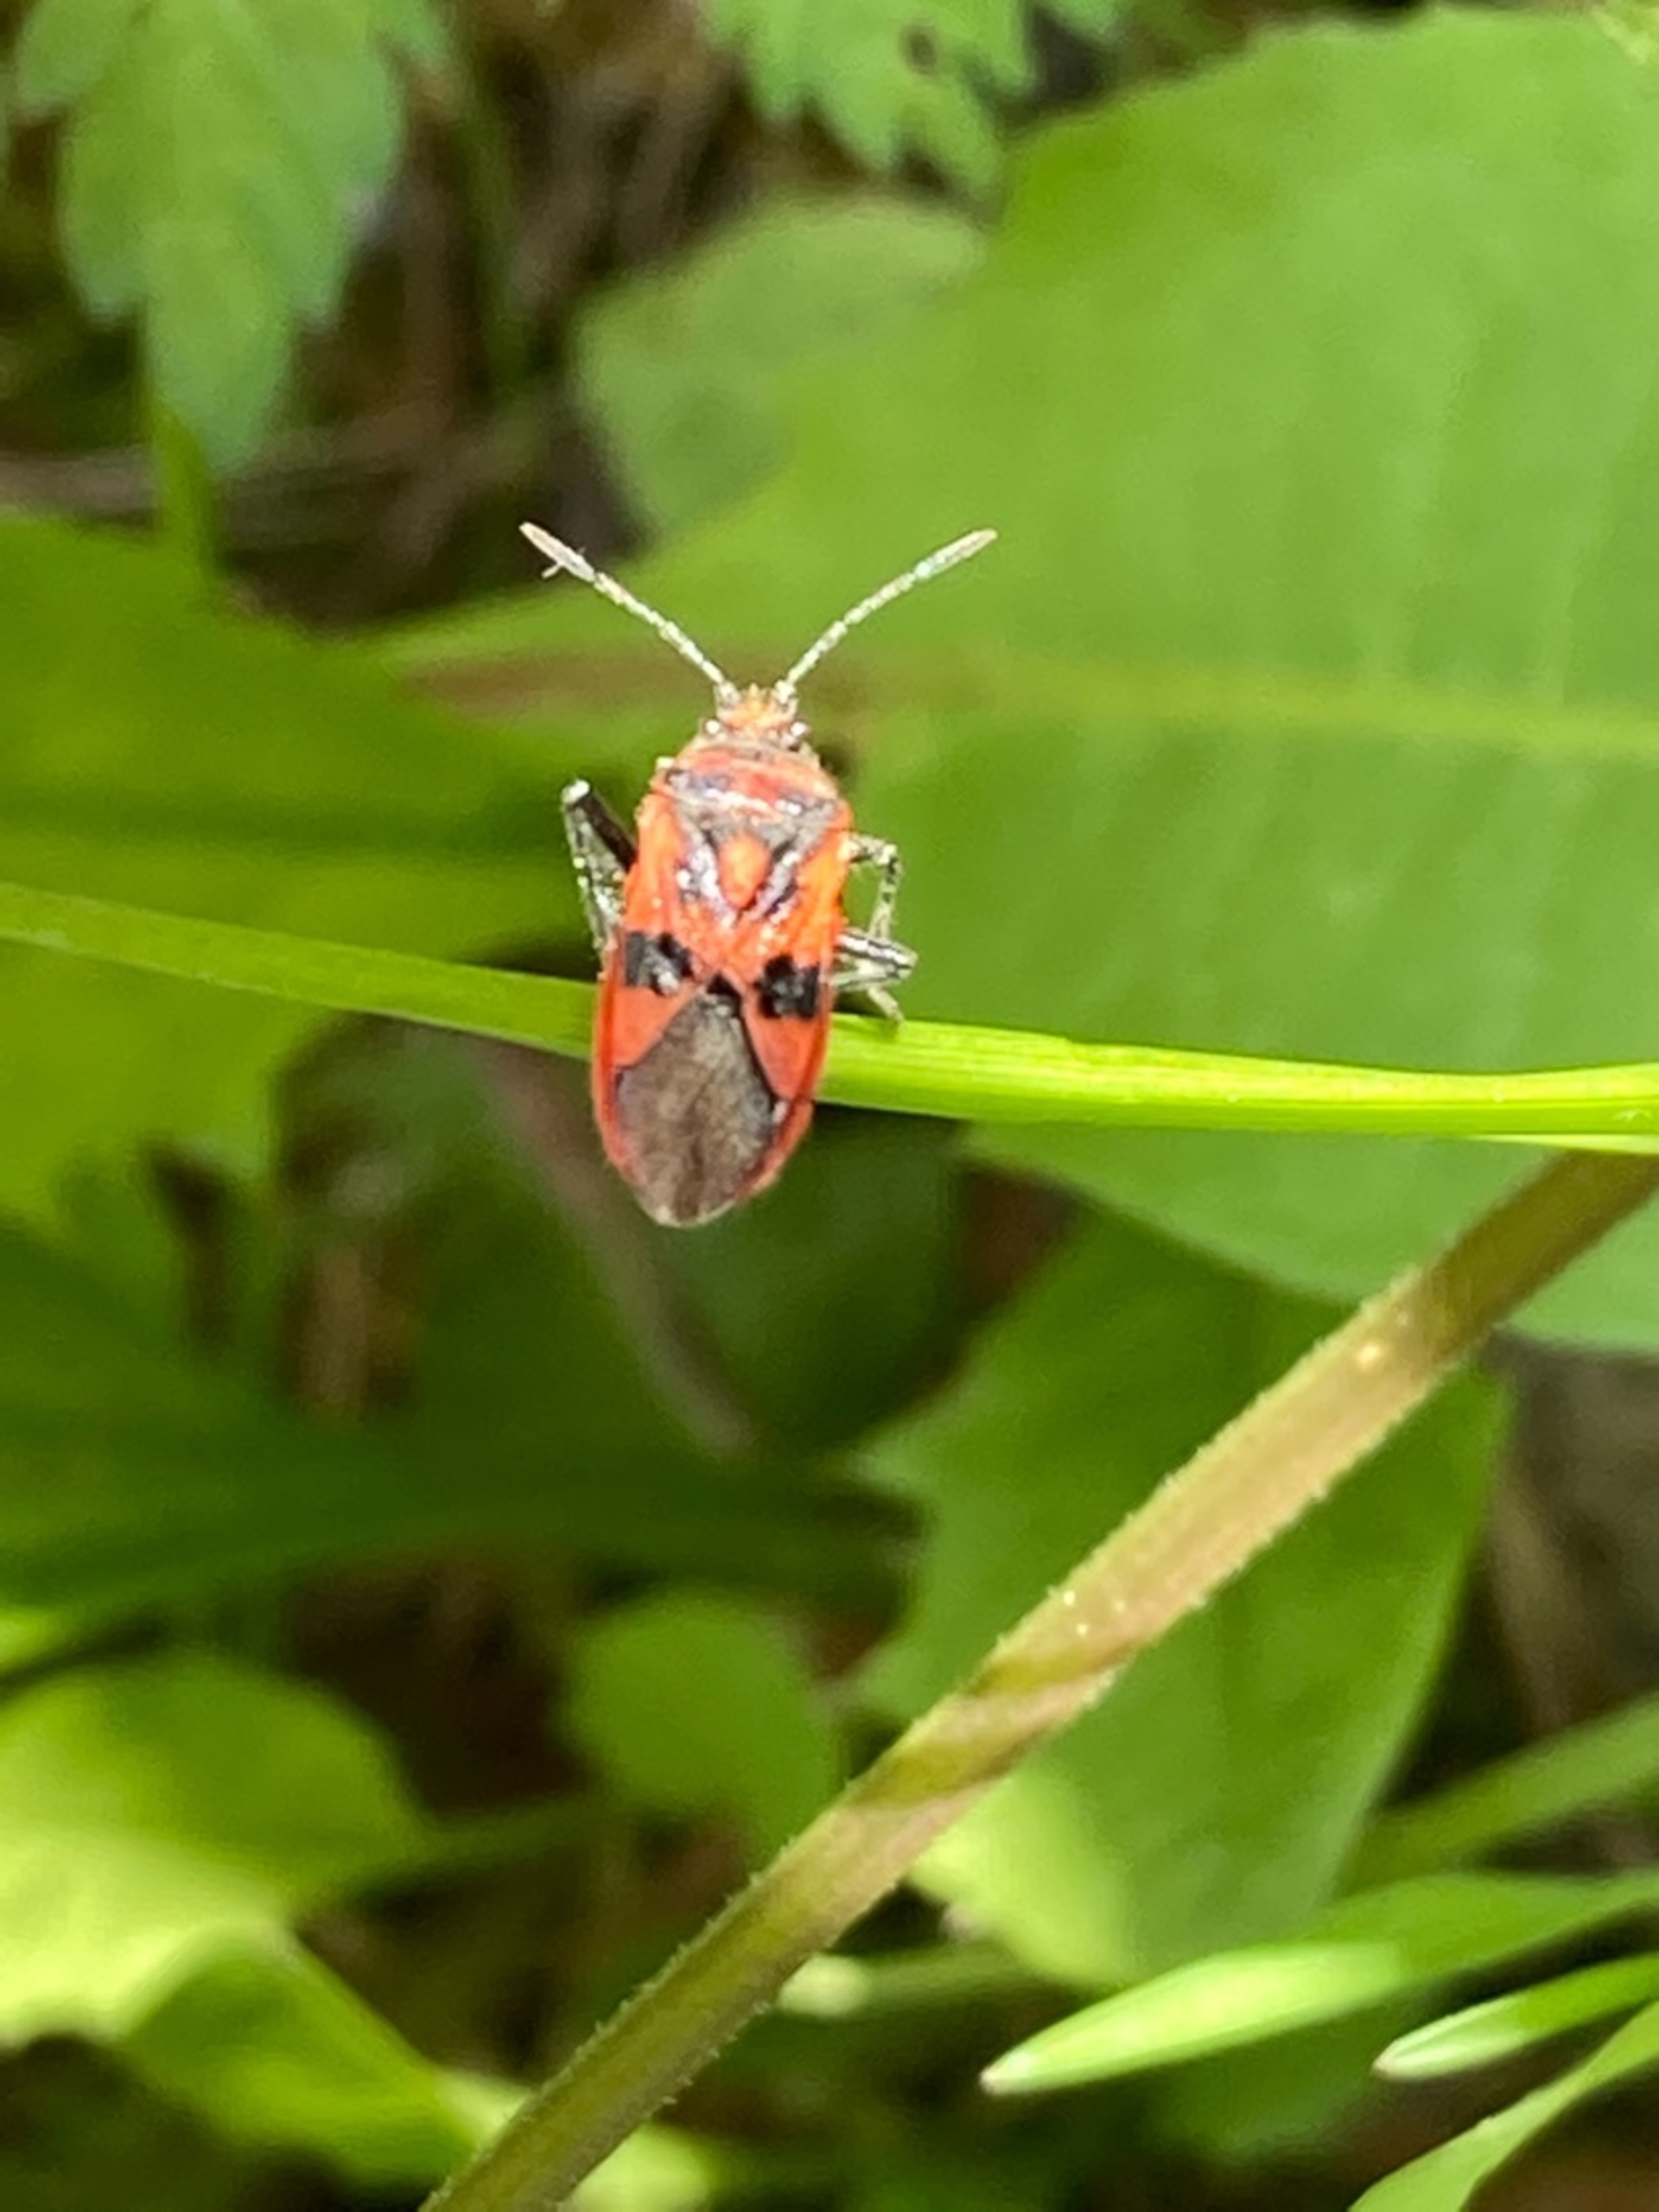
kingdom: Animalia
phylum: Arthropoda
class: Insecta
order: Hemiptera
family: Rhopalidae
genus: Corizus
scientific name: Corizus hyoscyami
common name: Rød kanttæge
